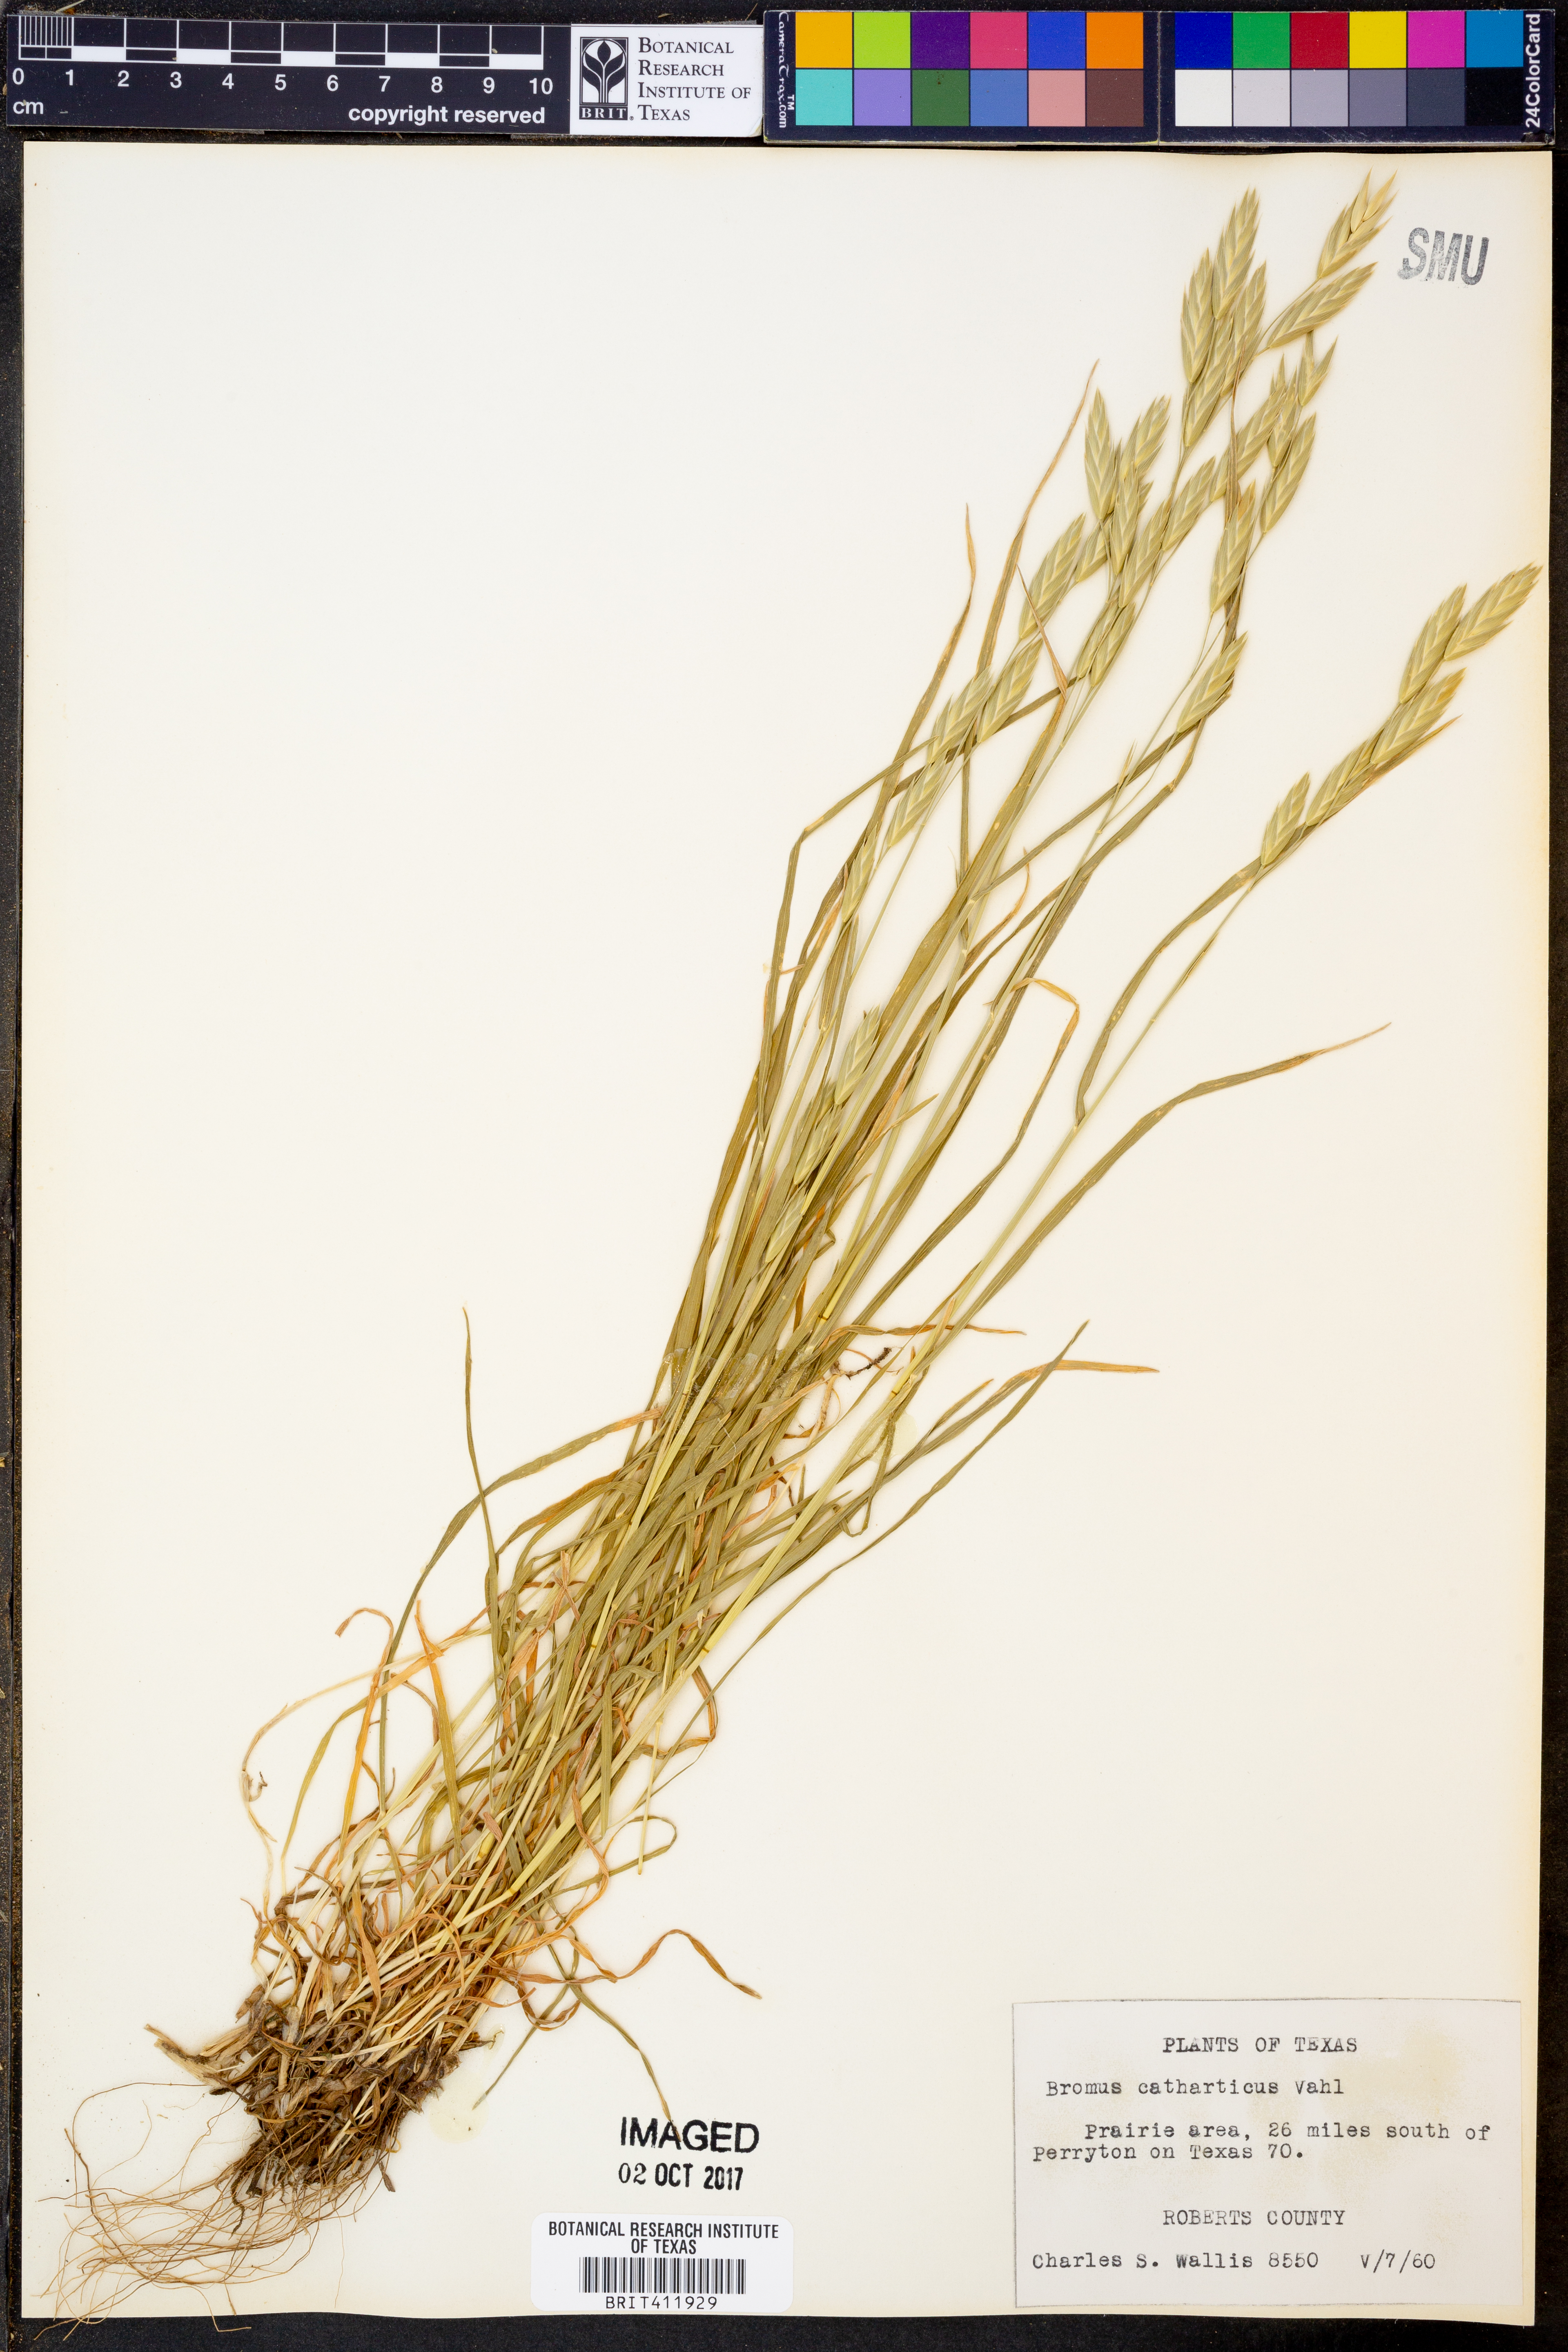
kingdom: Plantae
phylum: Tracheophyta
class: Liliopsida
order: Poales
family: Poaceae
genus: Bromus
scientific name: Bromus catharticus
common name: Rescuegrass
